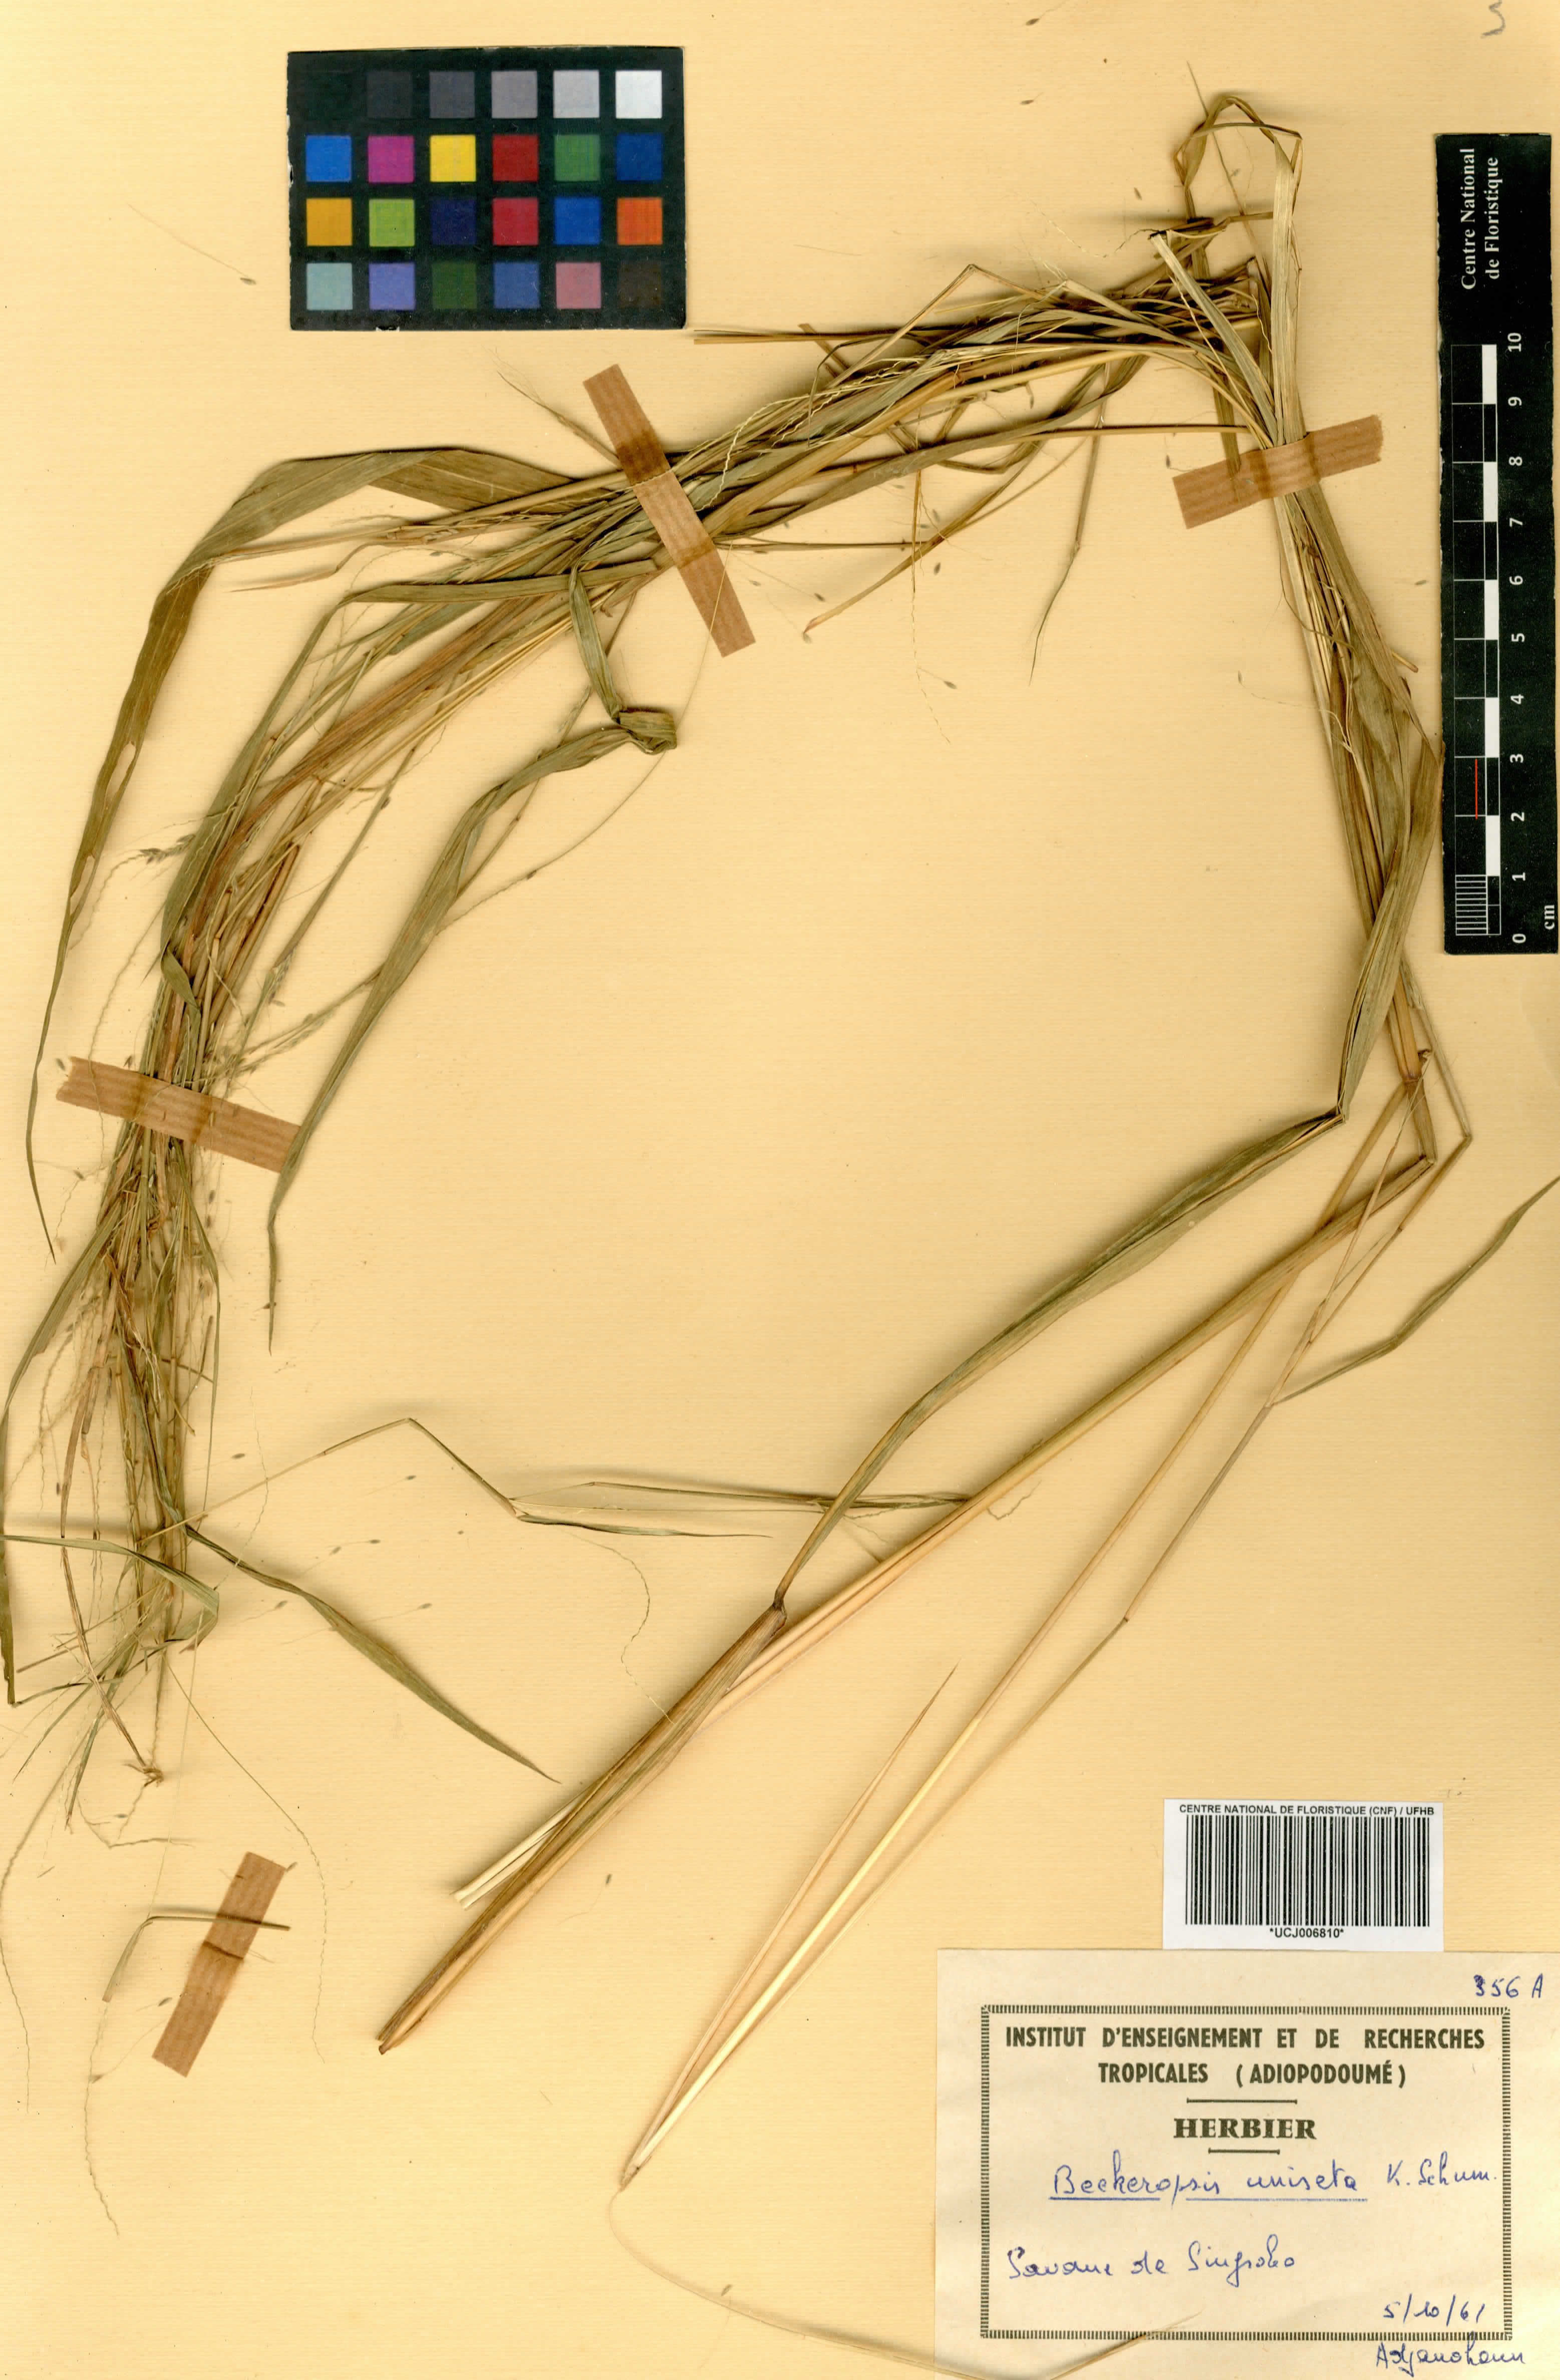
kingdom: Plantae
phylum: Tracheophyta
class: Liliopsida
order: Poales
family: Poaceae
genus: Cenchrus
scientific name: Cenchrus unisetus
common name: Natal grass
